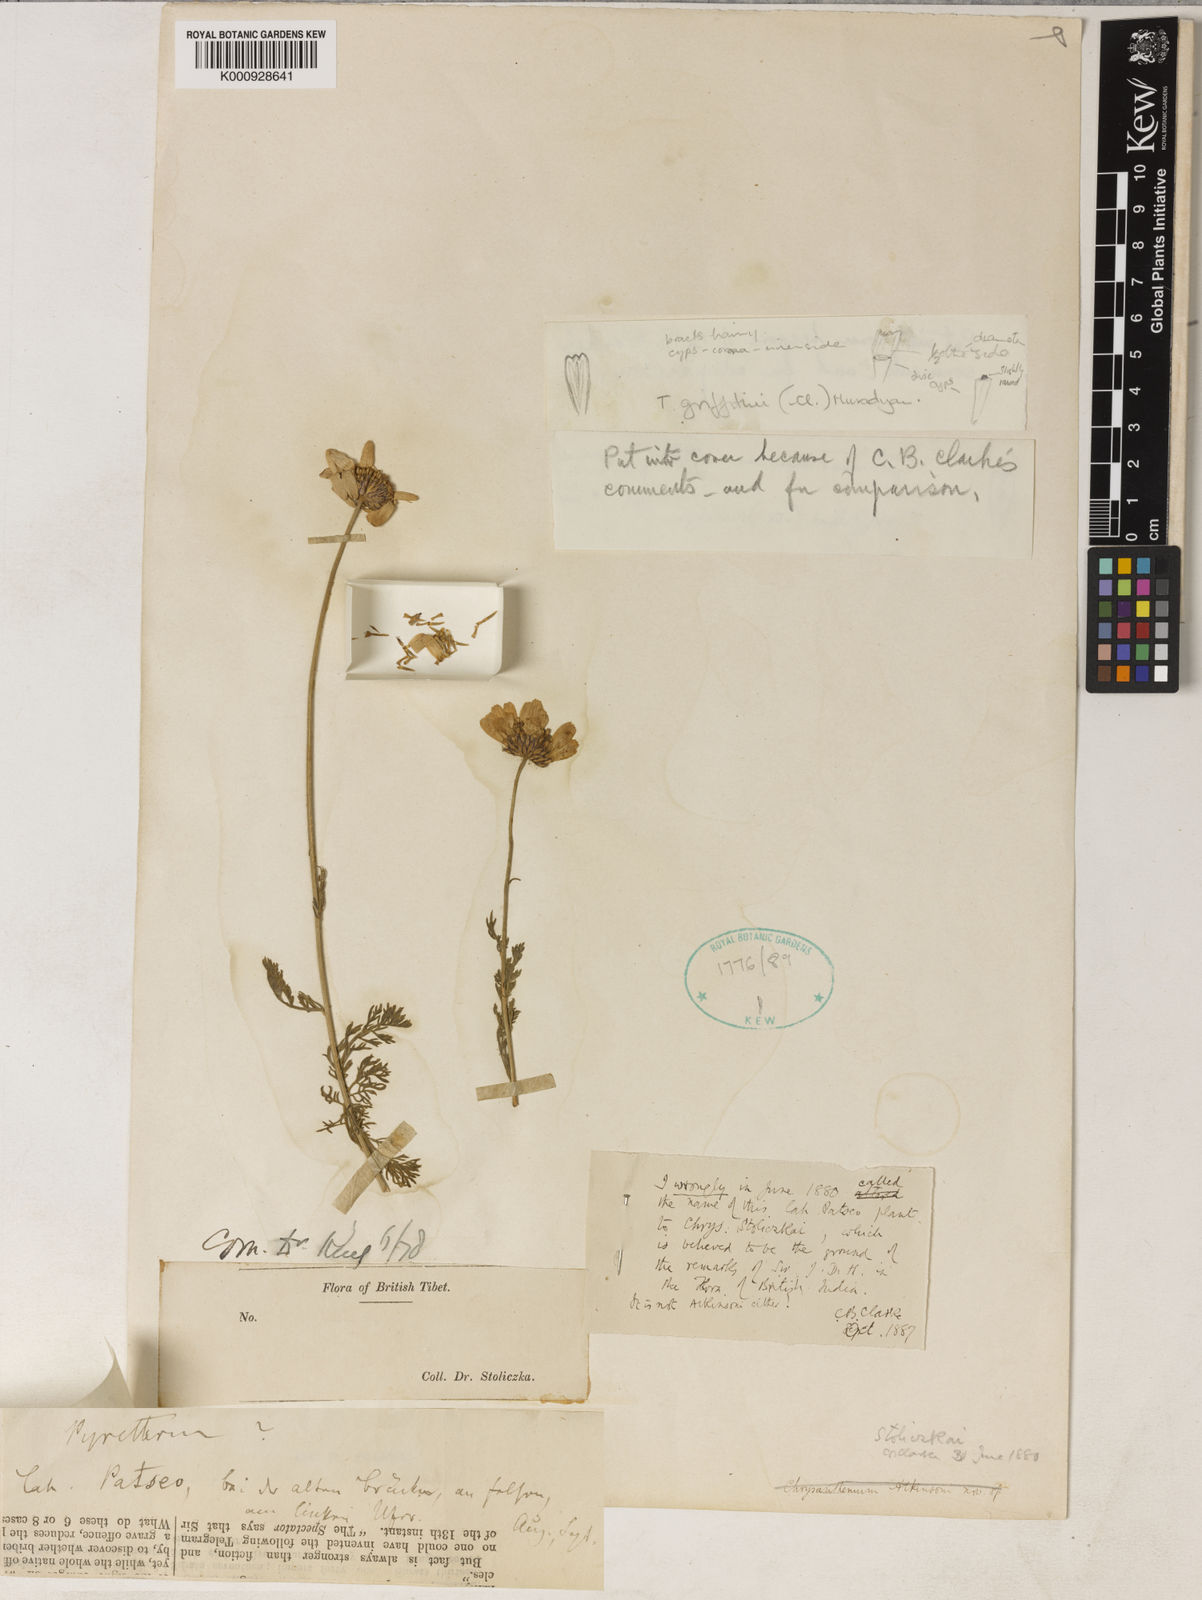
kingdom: Plantae
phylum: Tracheophyta
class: Magnoliopsida
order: Asterales
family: Asteraceae
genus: Tanacetum
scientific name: Tanacetum stoliczkae
